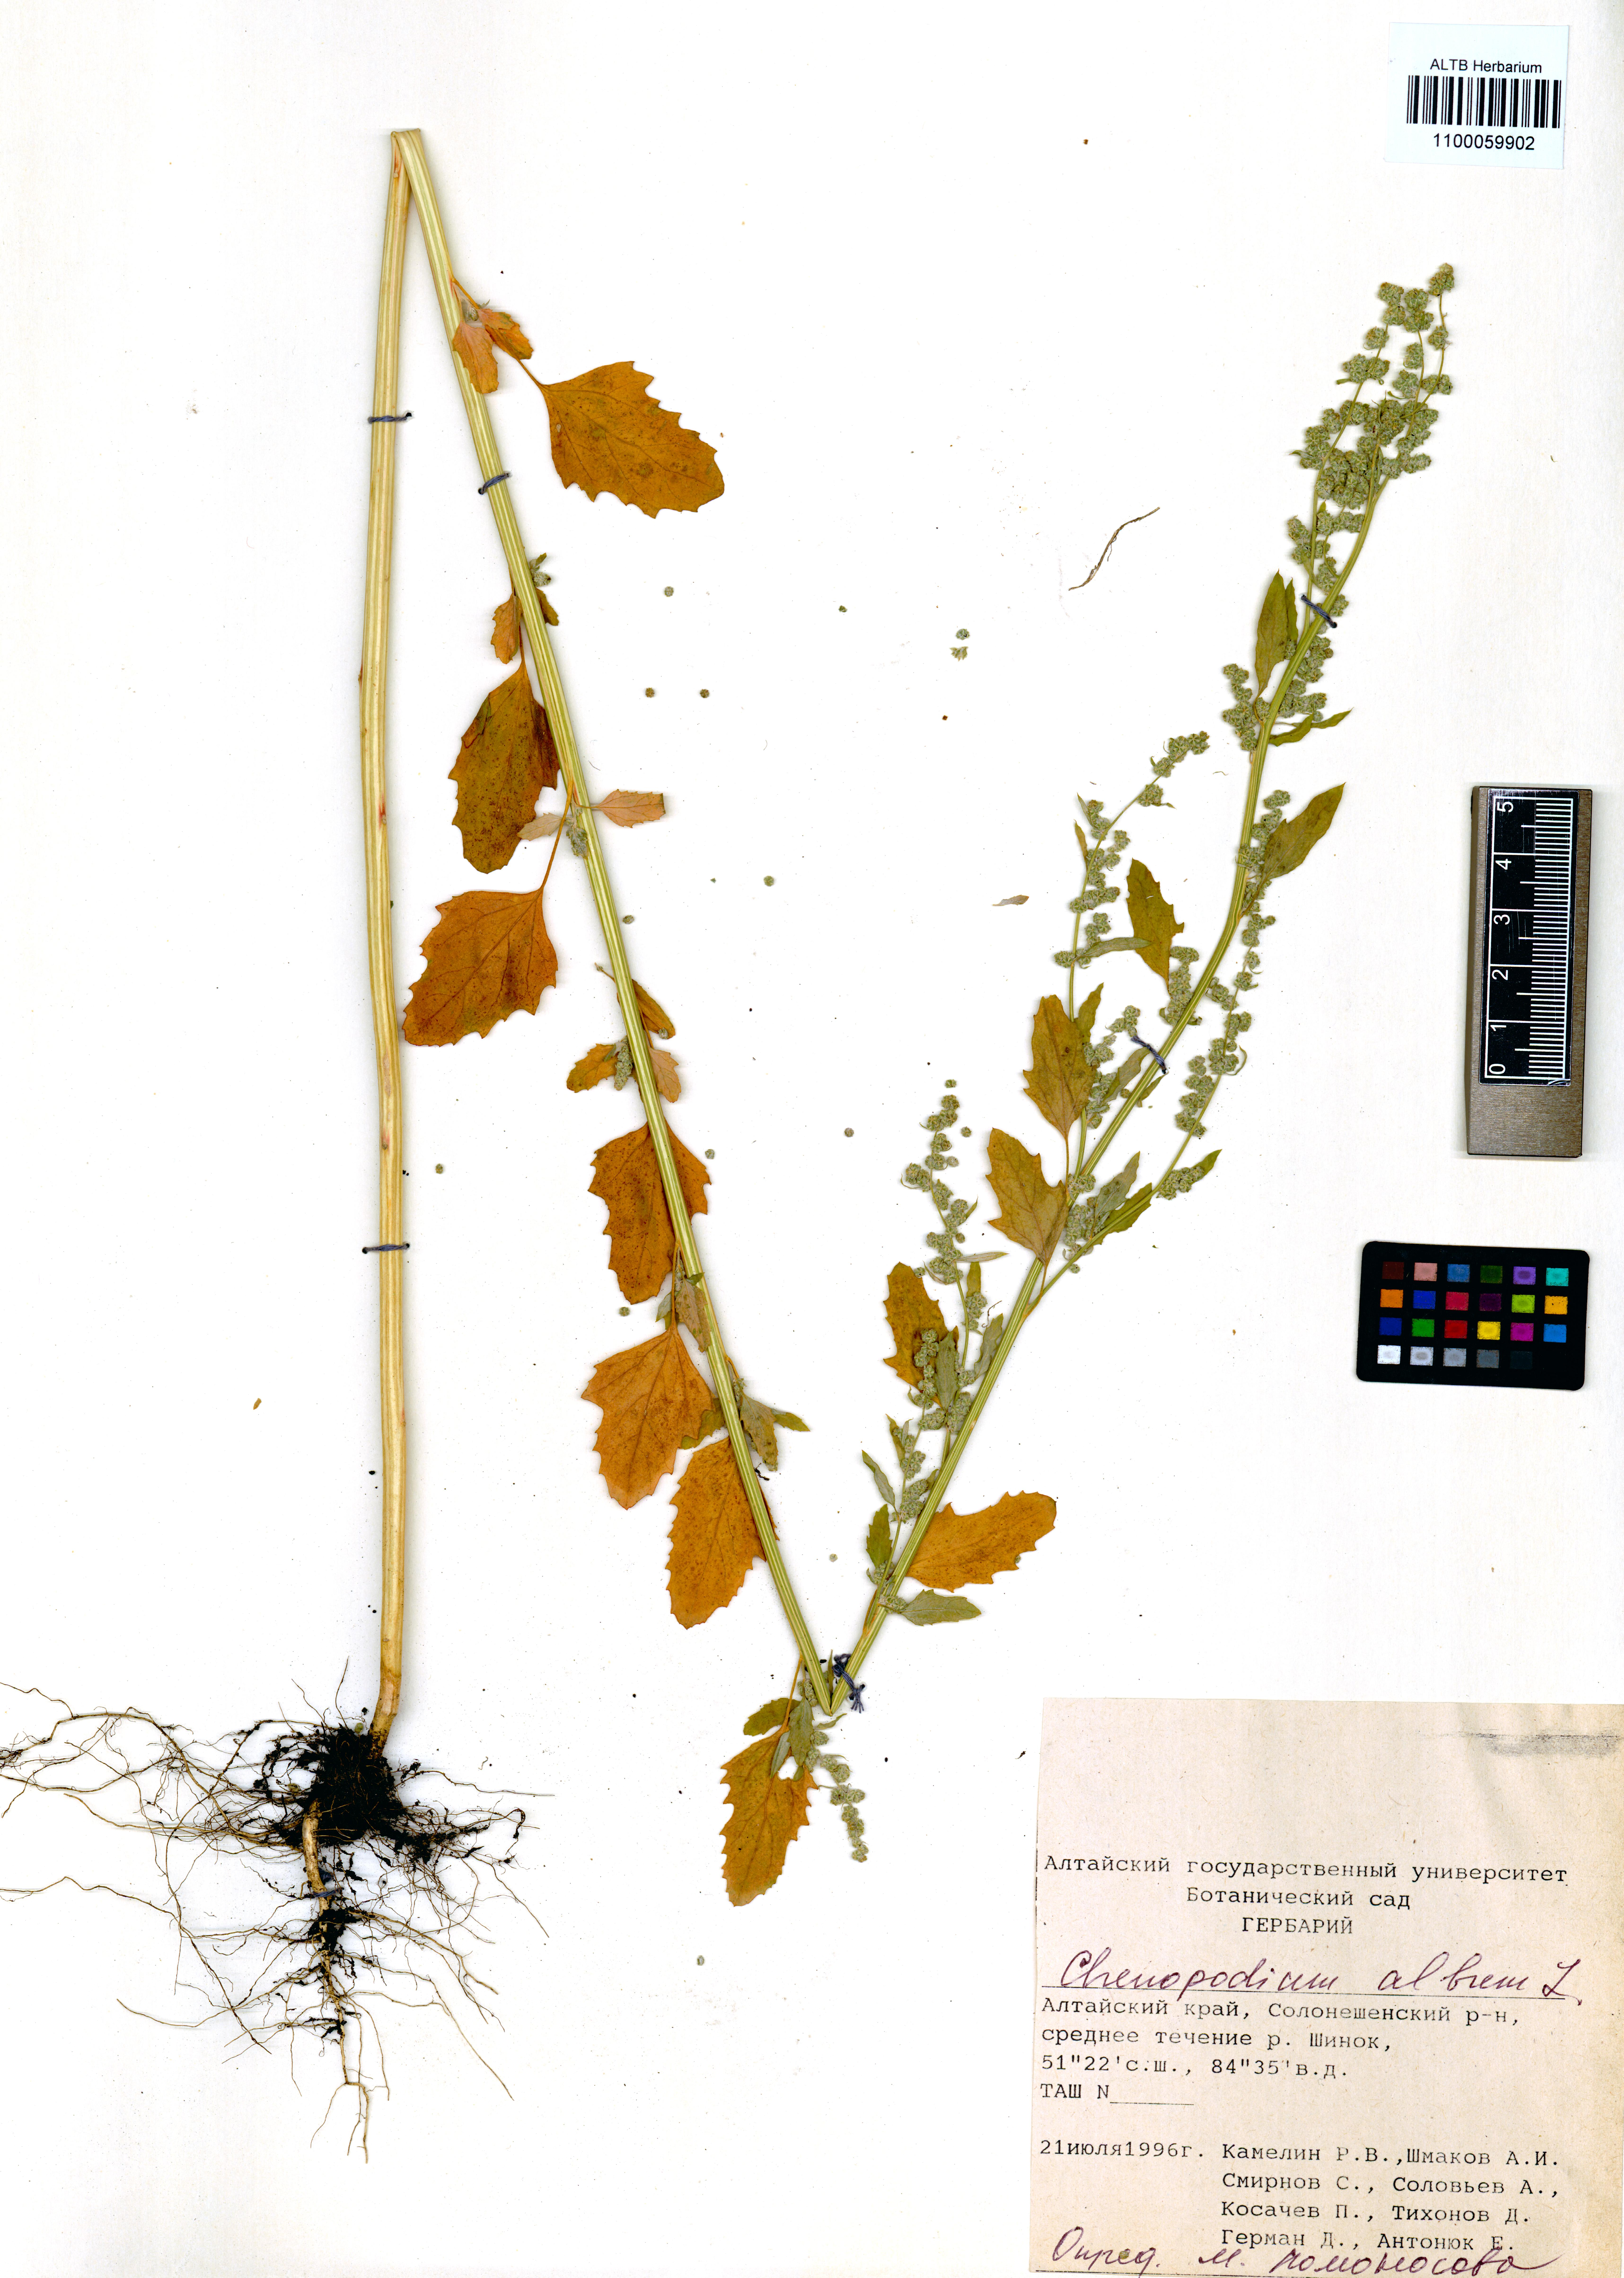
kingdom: Plantae
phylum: Tracheophyta
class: Magnoliopsida
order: Caryophyllales
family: Amaranthaceae
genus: Chenopodium
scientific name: Chenopodium album
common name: Fat-hen
